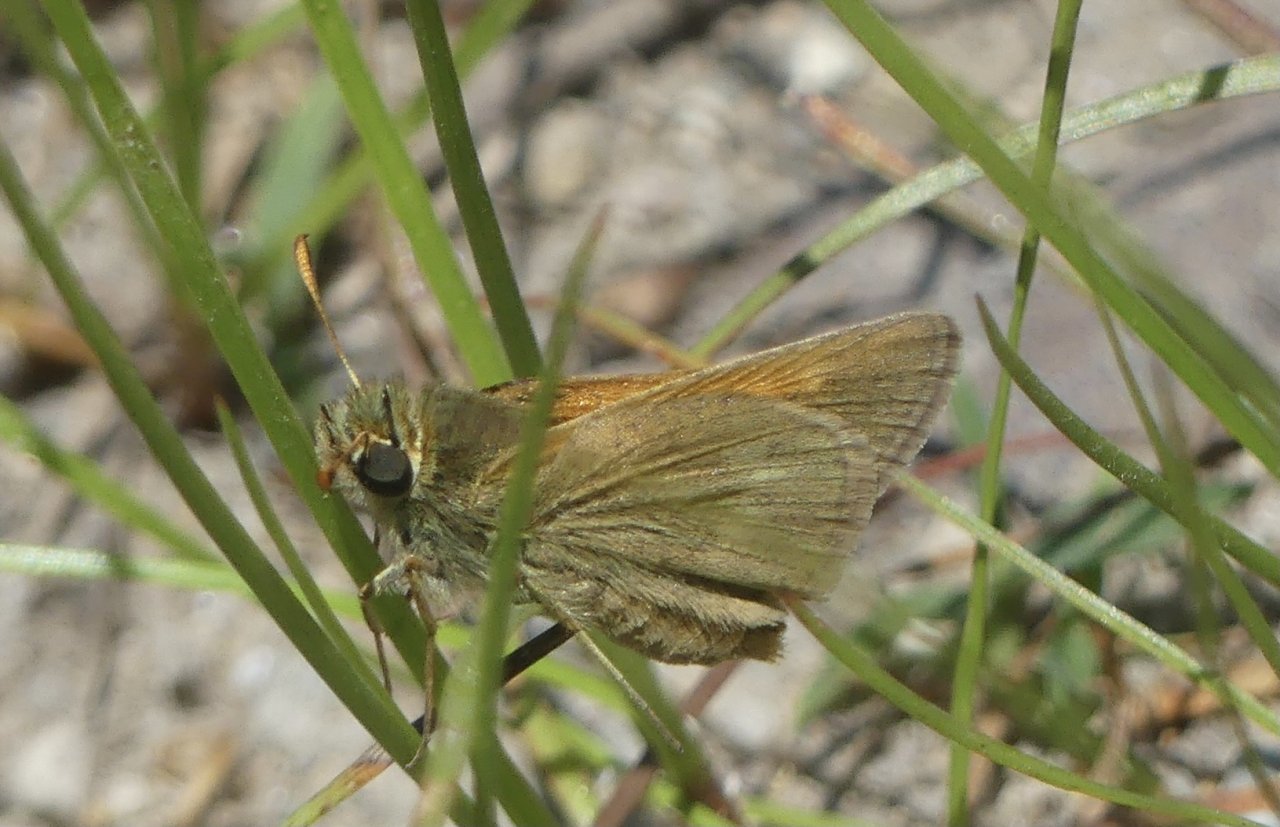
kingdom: Animalia
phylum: Arthropoda
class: Insecta
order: Lepidoptera
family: Hesperiidae
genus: Polites
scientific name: Polites themistocles
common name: Tawny-edged Skipper
